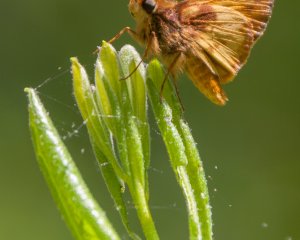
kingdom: Animalia
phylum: Arthropoda
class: Insecta
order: Lepidoptera
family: Hesperiidae
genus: Lon
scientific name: Lon zabulon
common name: Zabulon Skipper
